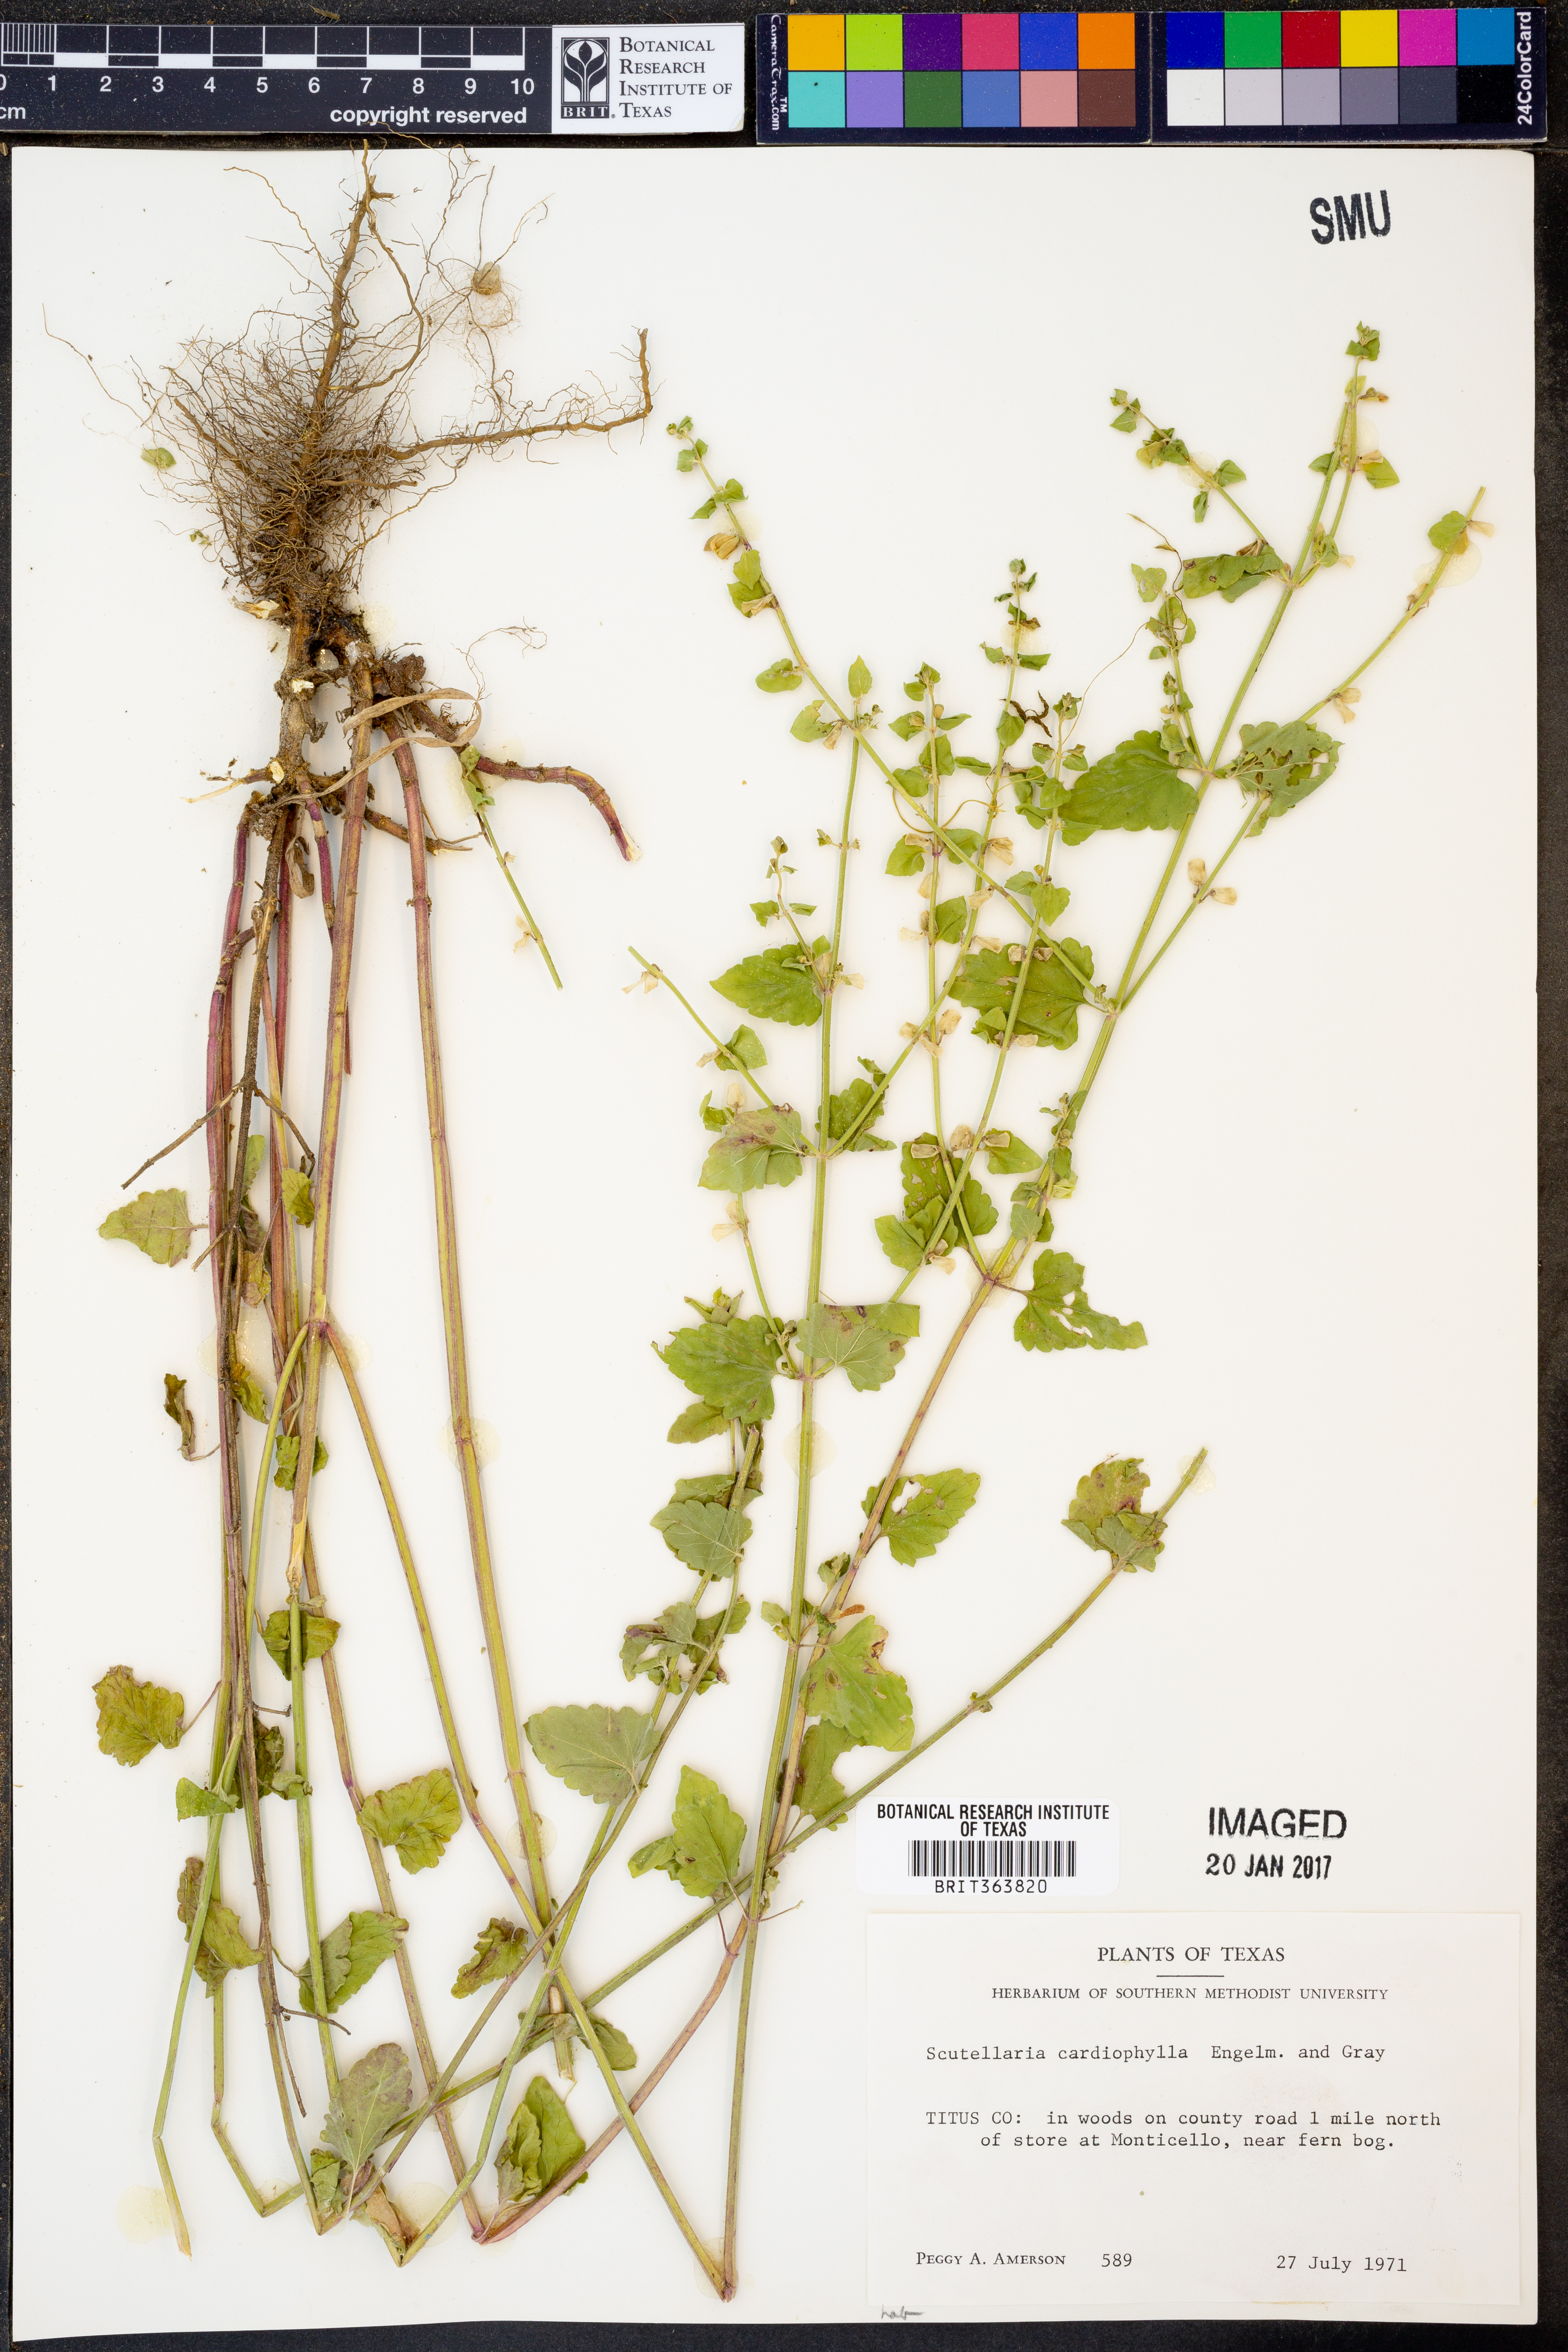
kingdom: Plantae
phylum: Tracheophyta
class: Magnoliopsida
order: Lamiales
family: Lamiaceae
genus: Scutellaria
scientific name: Scutellaria cardiophylla
